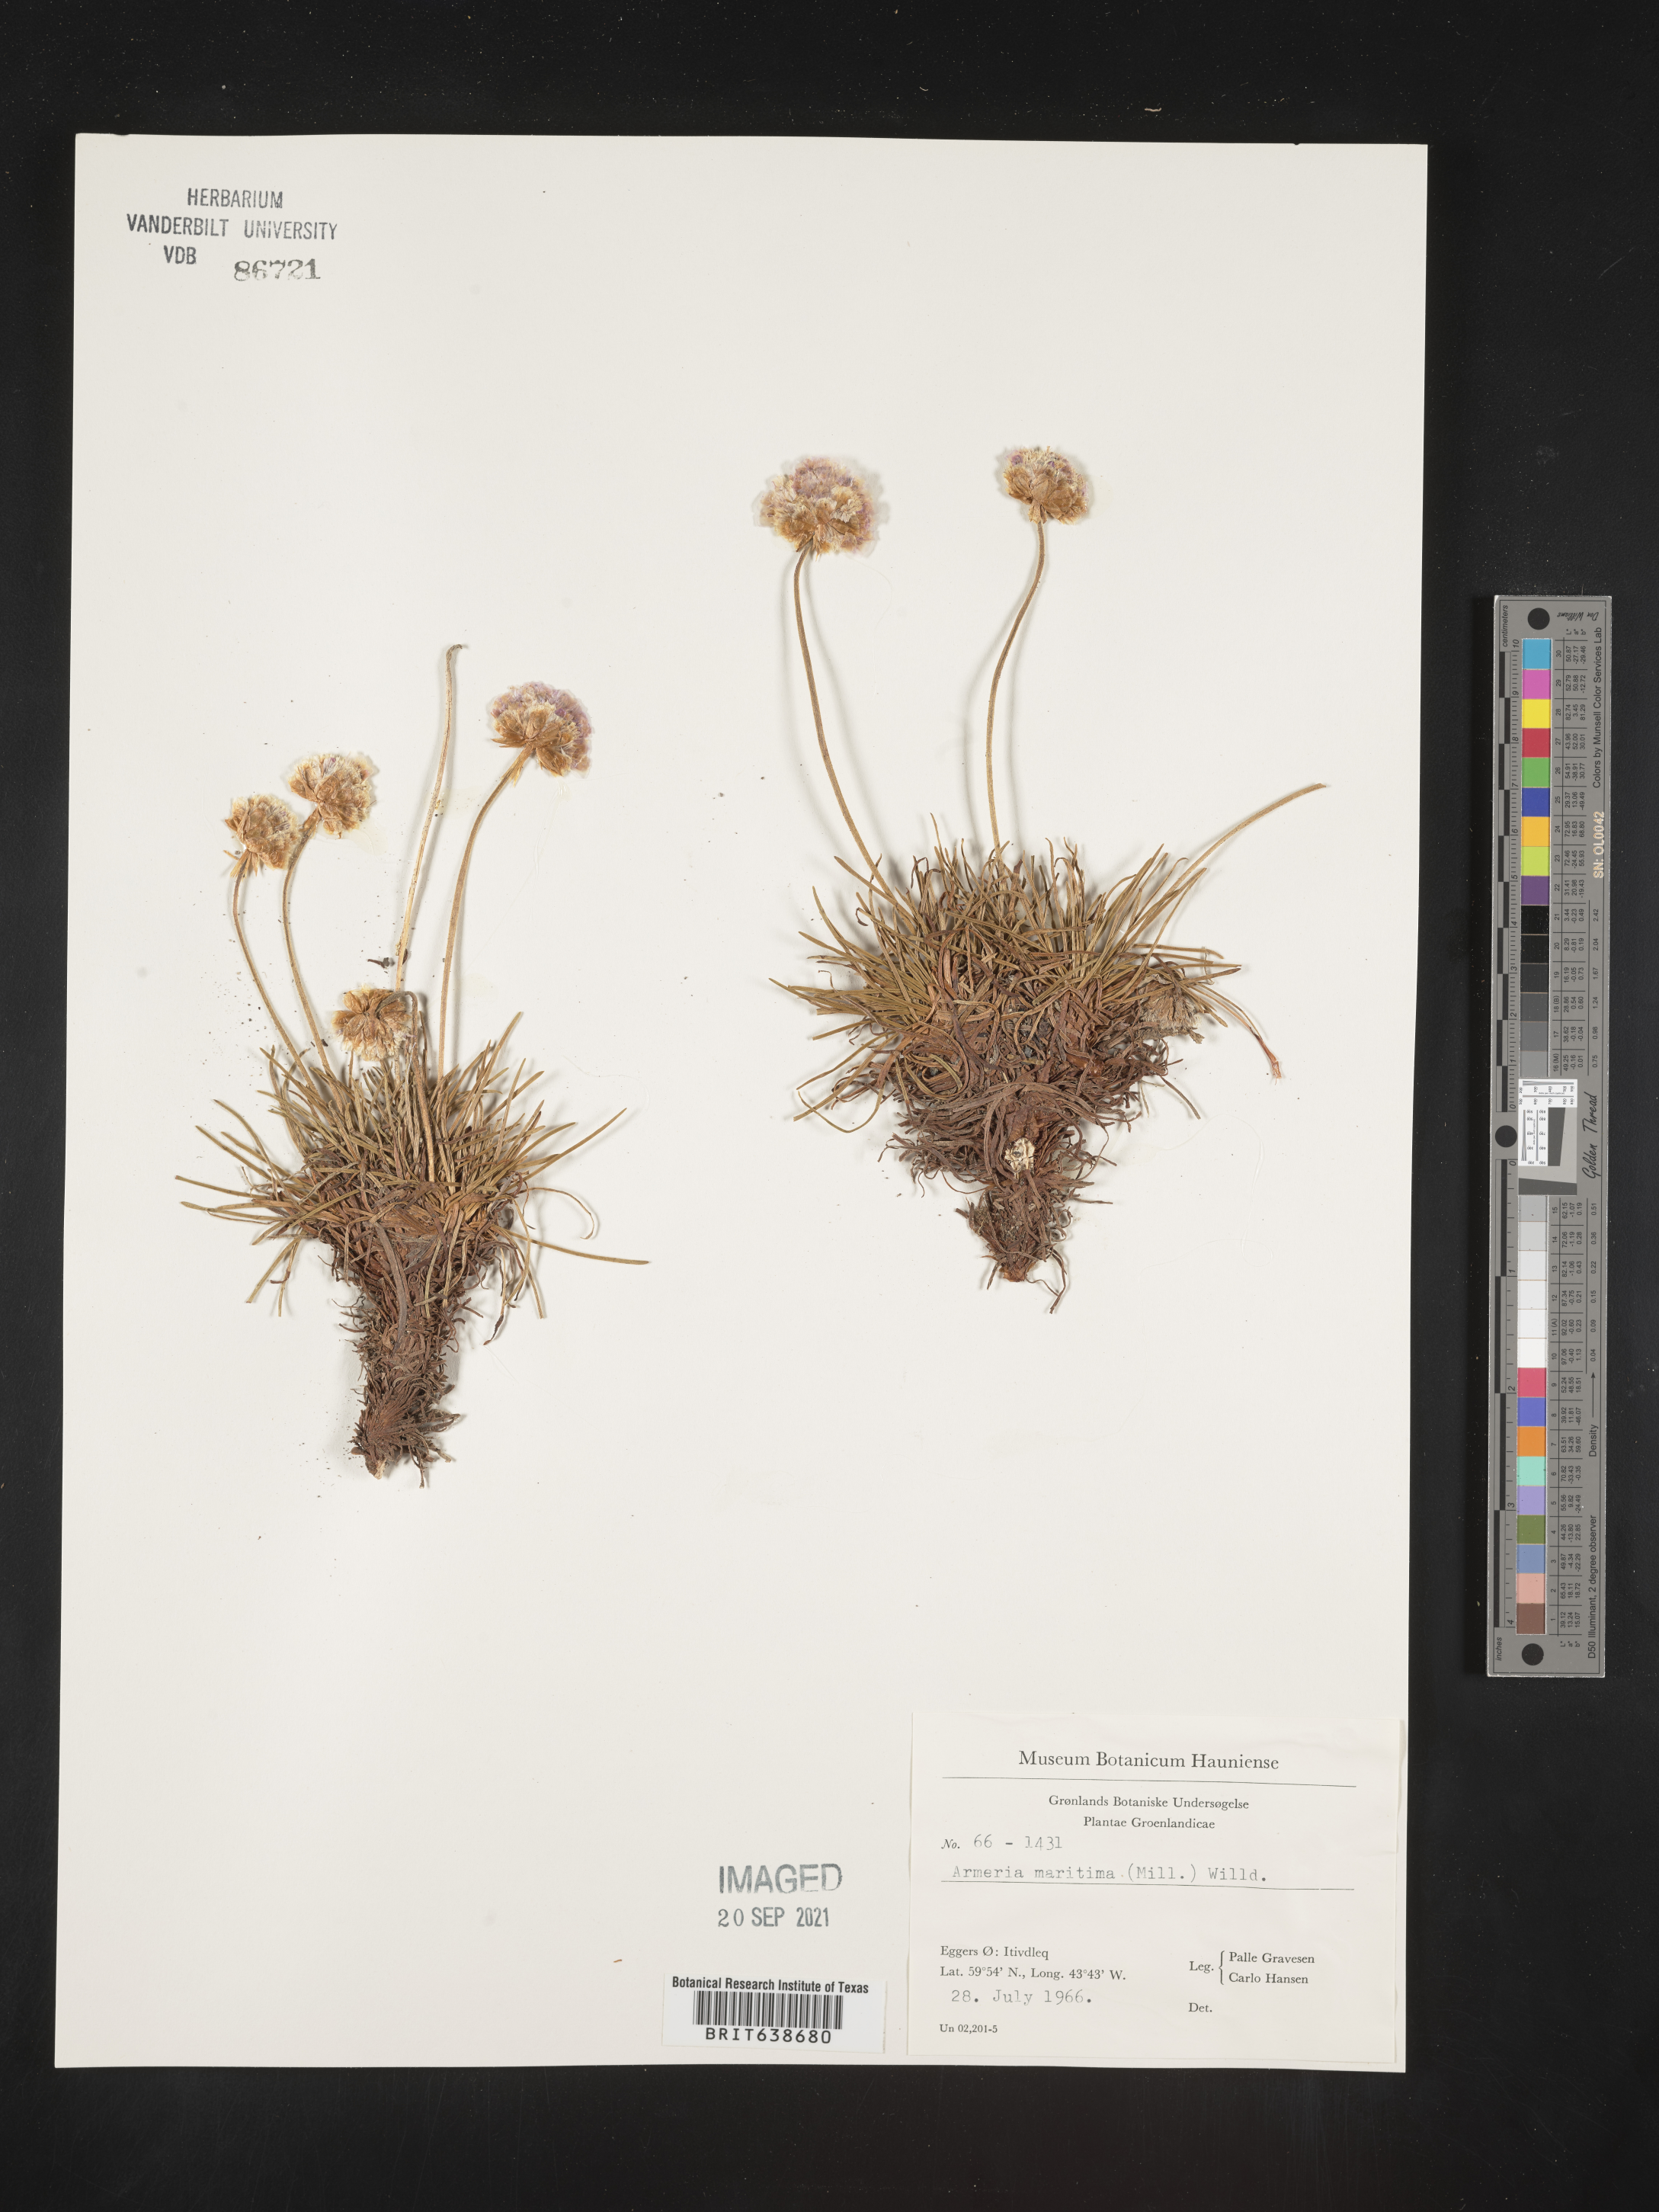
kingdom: Plantae
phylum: Tracheophyta
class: Magnoliopsida
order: Caryophyllales
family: Plumbaginaceae
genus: Armeria
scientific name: Armeria
